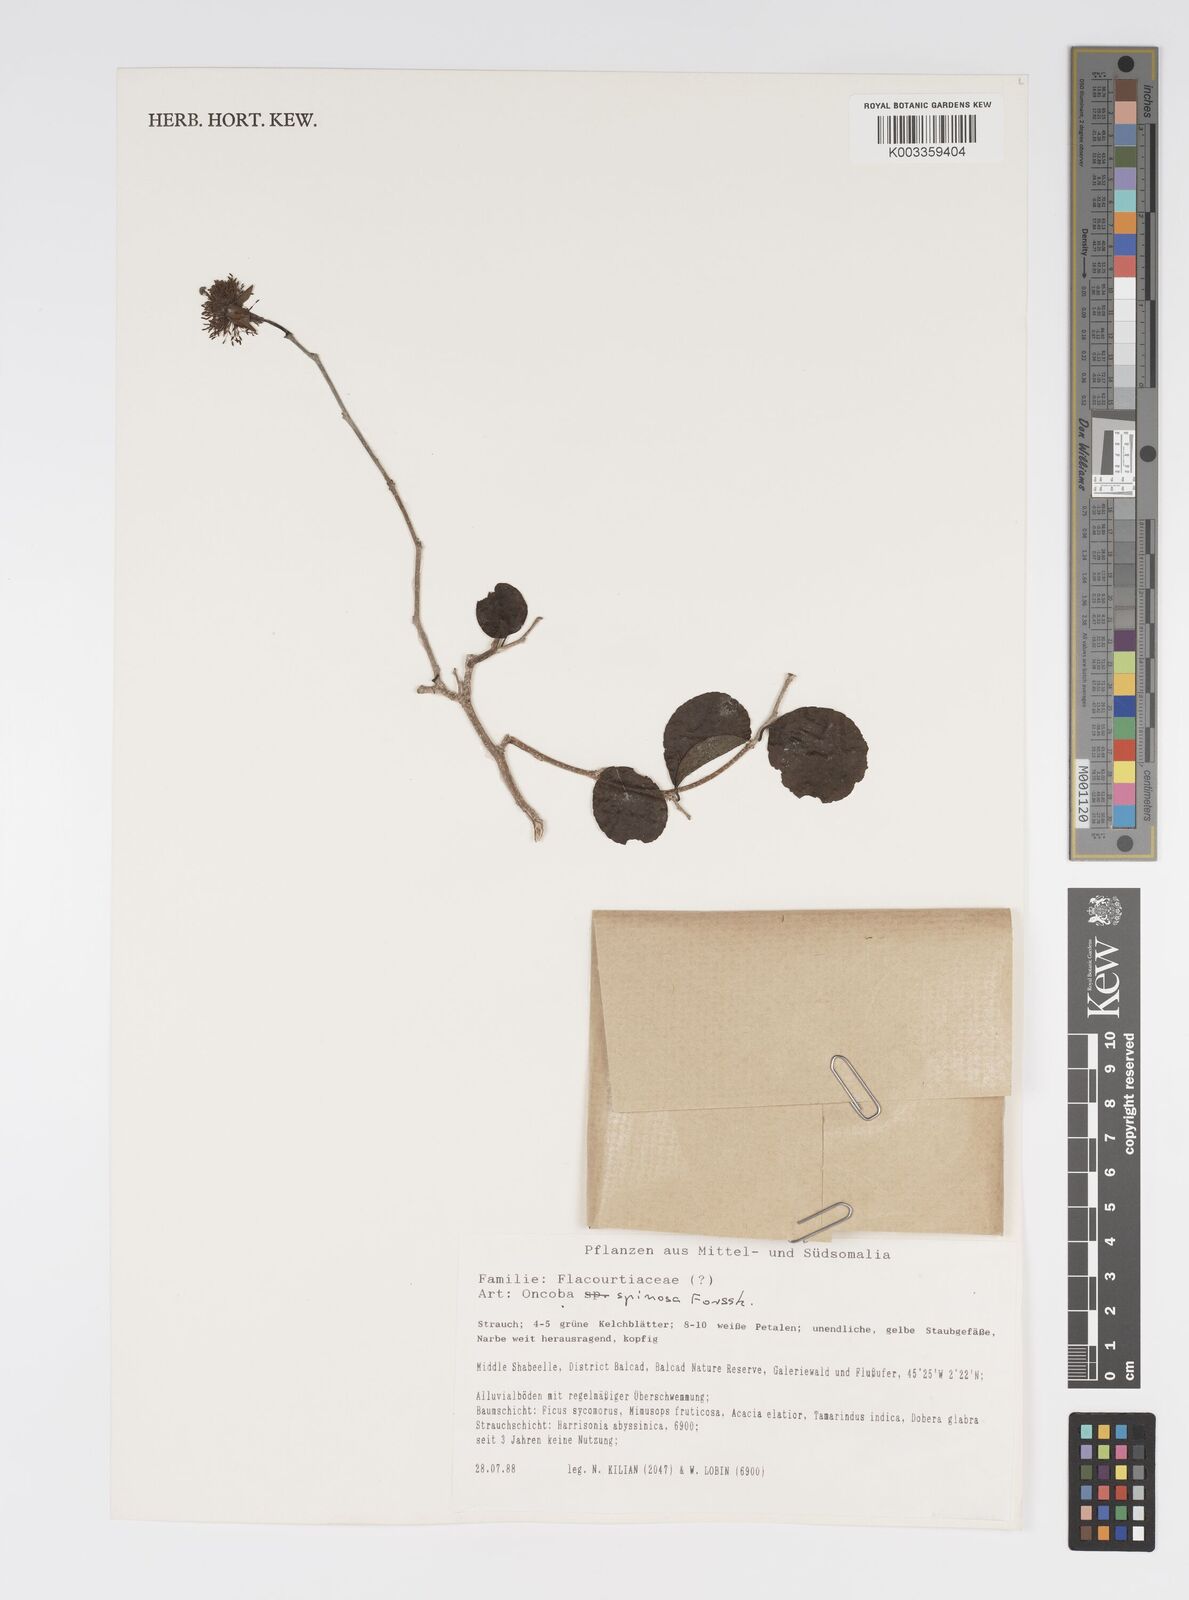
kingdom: Plantae
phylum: Tracheophyta
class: Magnoliopsida
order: Malpighiales
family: Salicaceae
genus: Oncoba
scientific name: Oncoba spinosa
